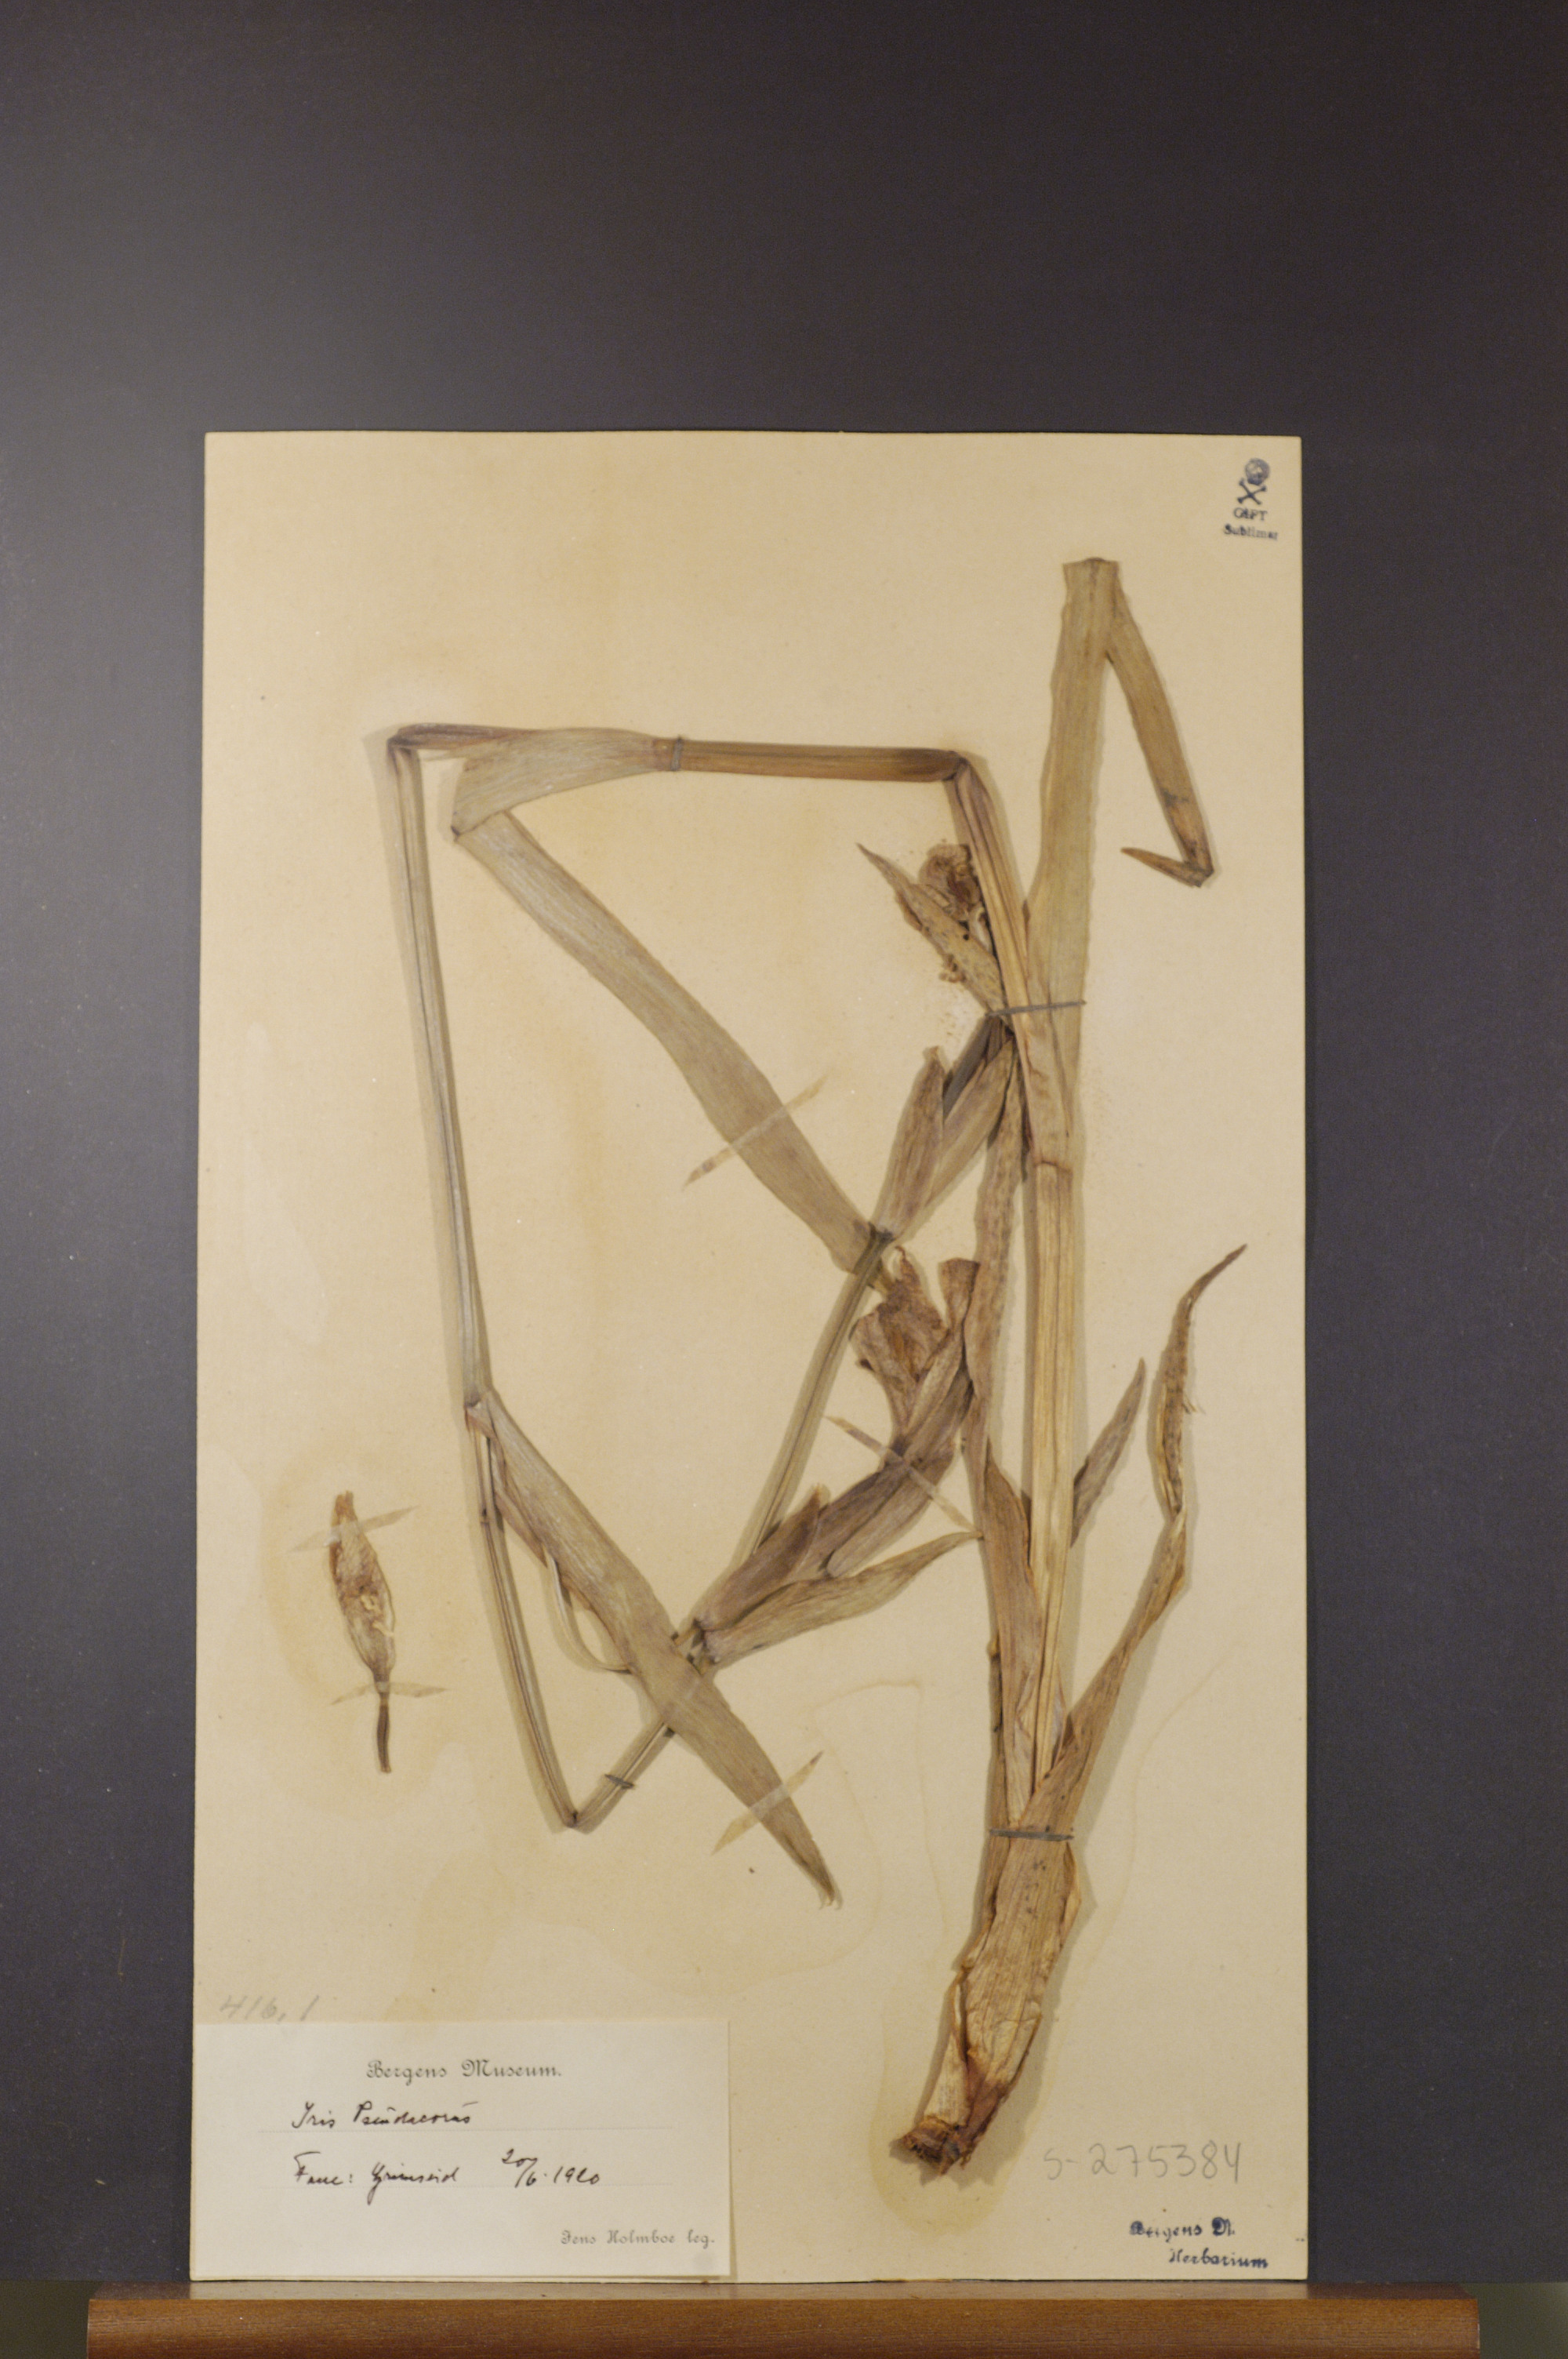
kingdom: Plantae
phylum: Tracheophyta
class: Liliopsida
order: Asparagales
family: Iridaceae
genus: Iris
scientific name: Iris pseudacorus
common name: Yellow flag
